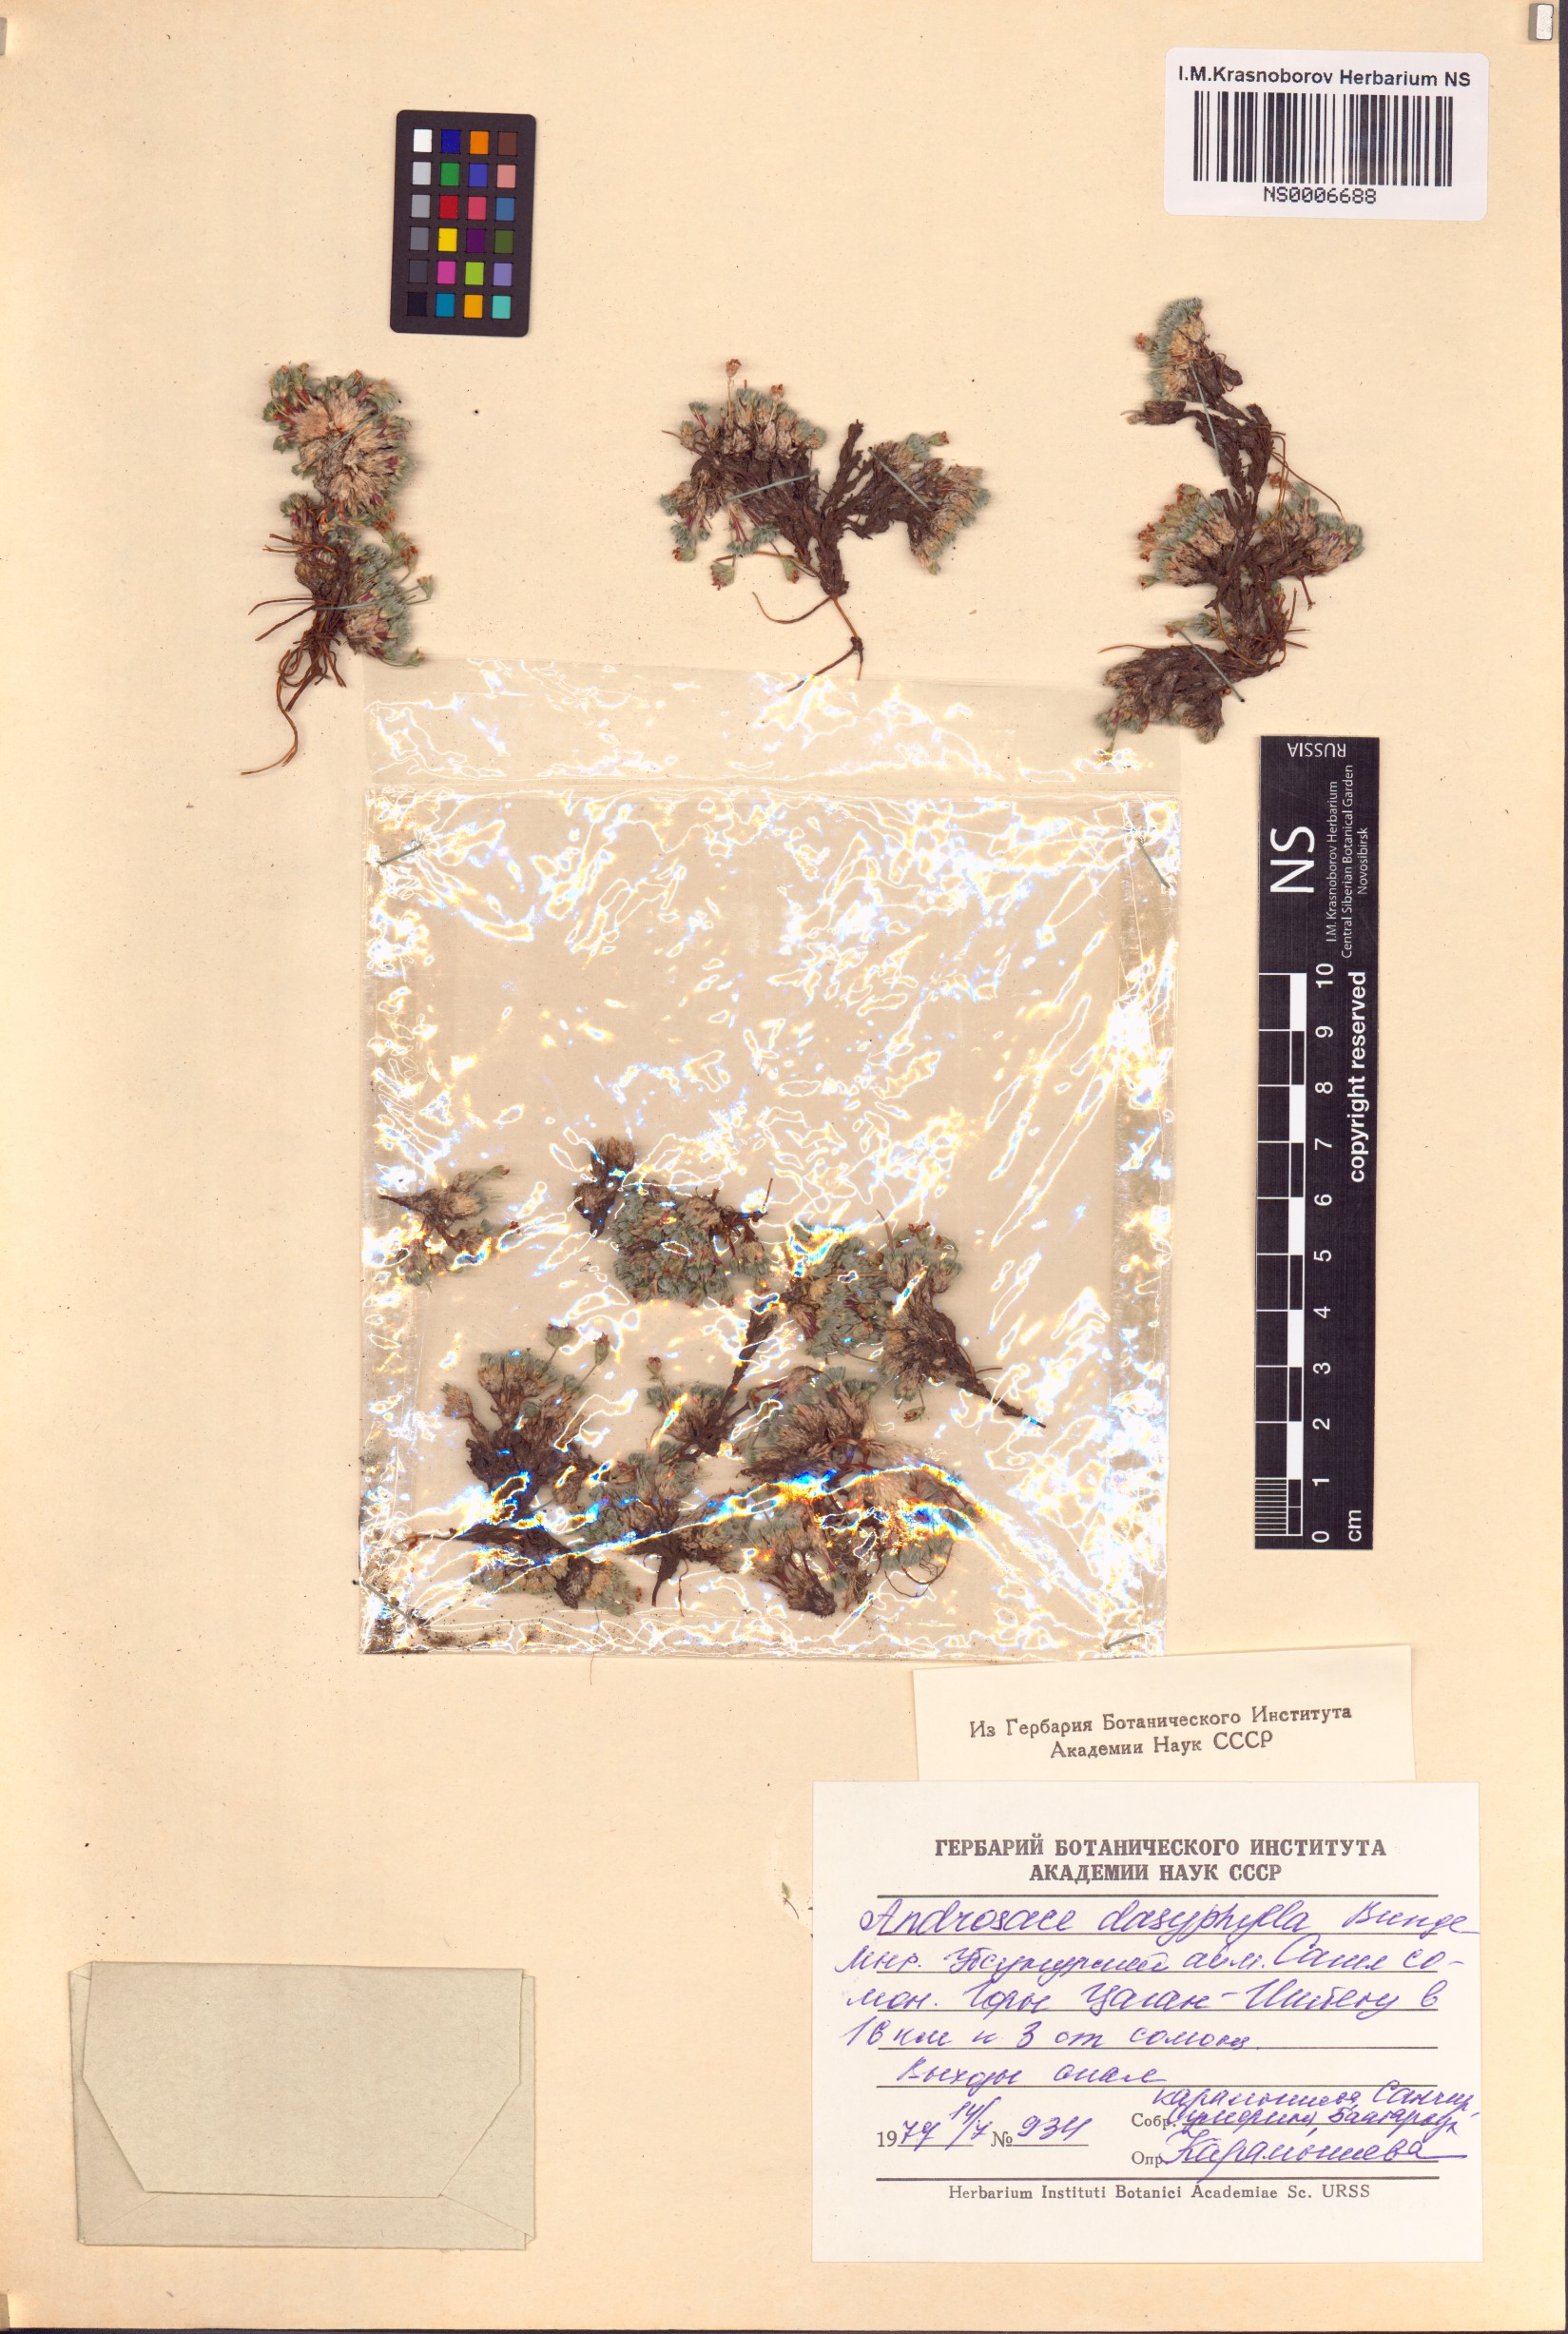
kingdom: Plantae
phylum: Tracheophyta
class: Magnoliopsida
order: Ericales
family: Primulaceae
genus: Androsace
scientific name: Androsace dasyphylla
